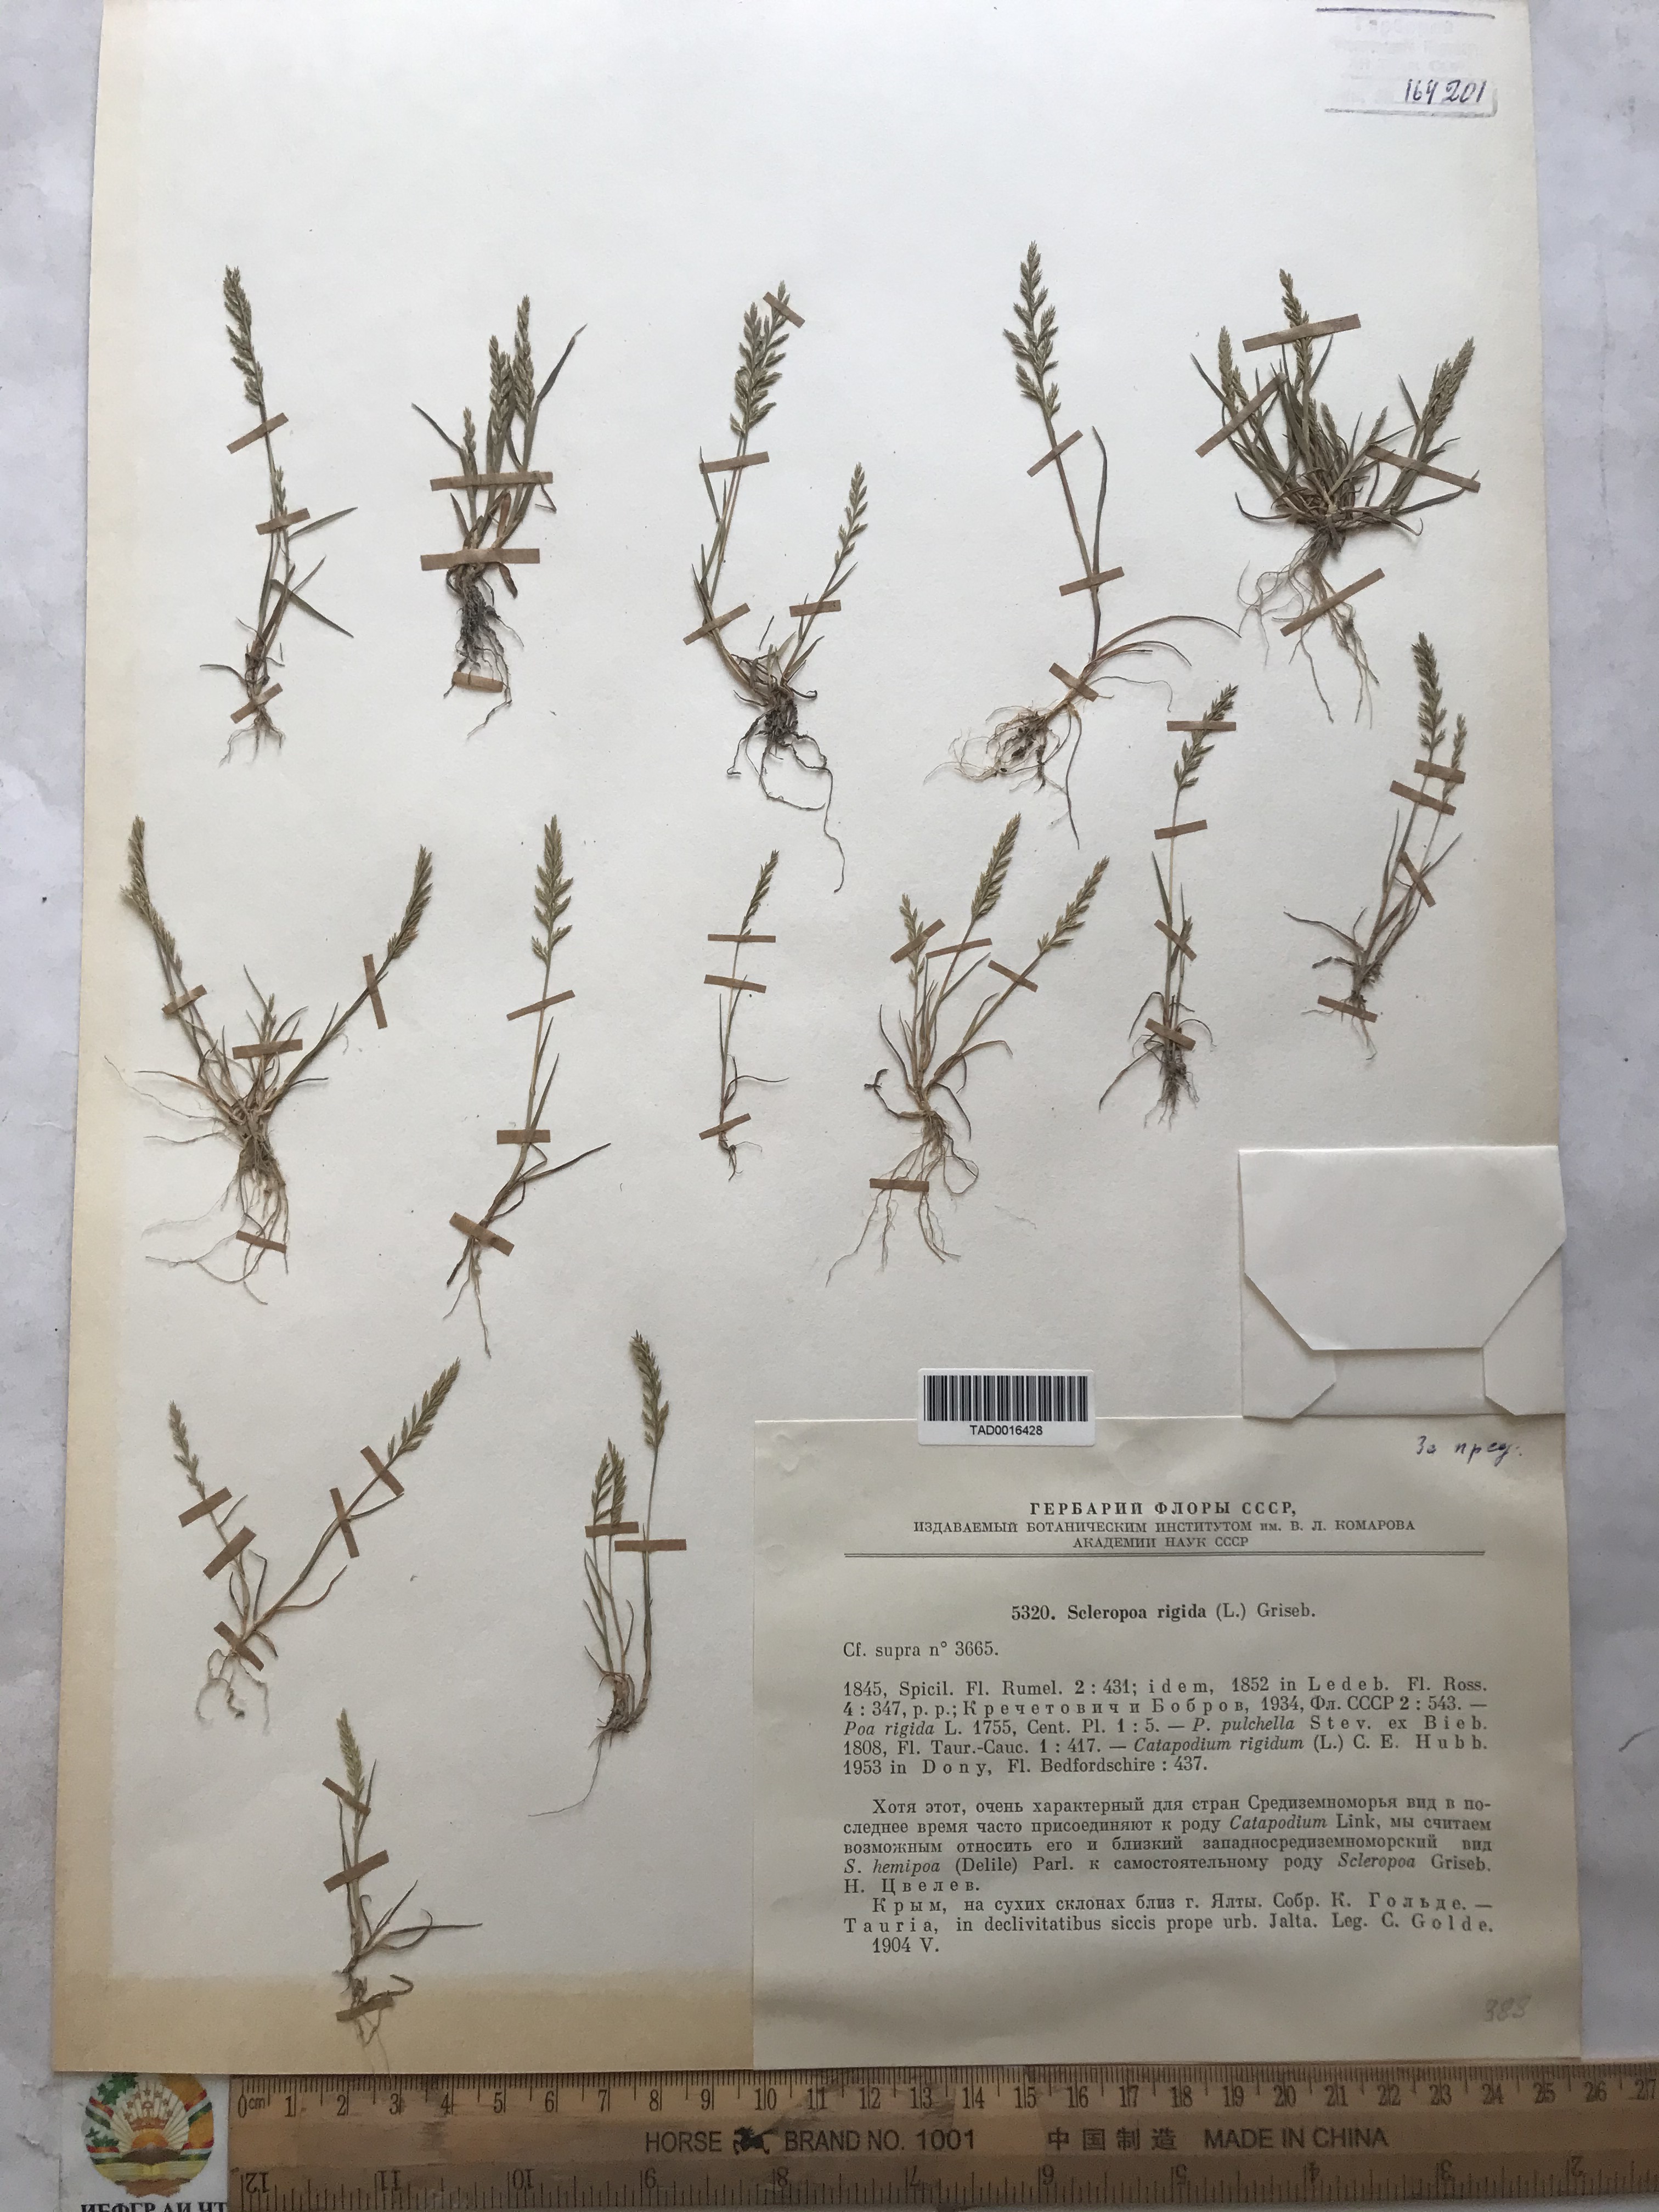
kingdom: Plantae
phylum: Tracheophyta
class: Liliopsida
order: Poales
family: Poaceae
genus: Catapodium
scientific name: Catapodium rigidum
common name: Fern-grass
